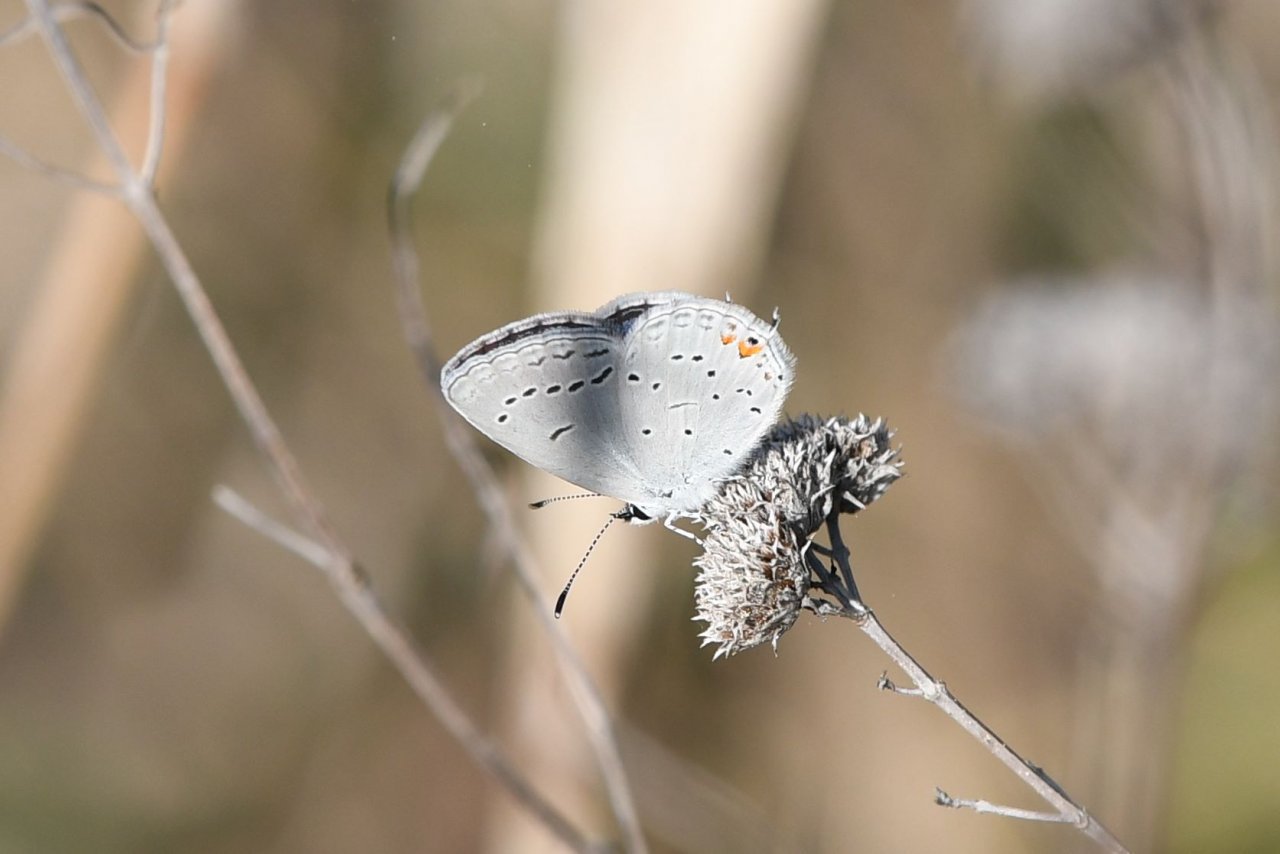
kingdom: Animalia
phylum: Arthropoda
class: Insecta
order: Lepidoptera
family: Lycaenidae
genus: Elkalyce
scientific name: Elkalyce comyntas
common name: Eastern Tailed-Blue
